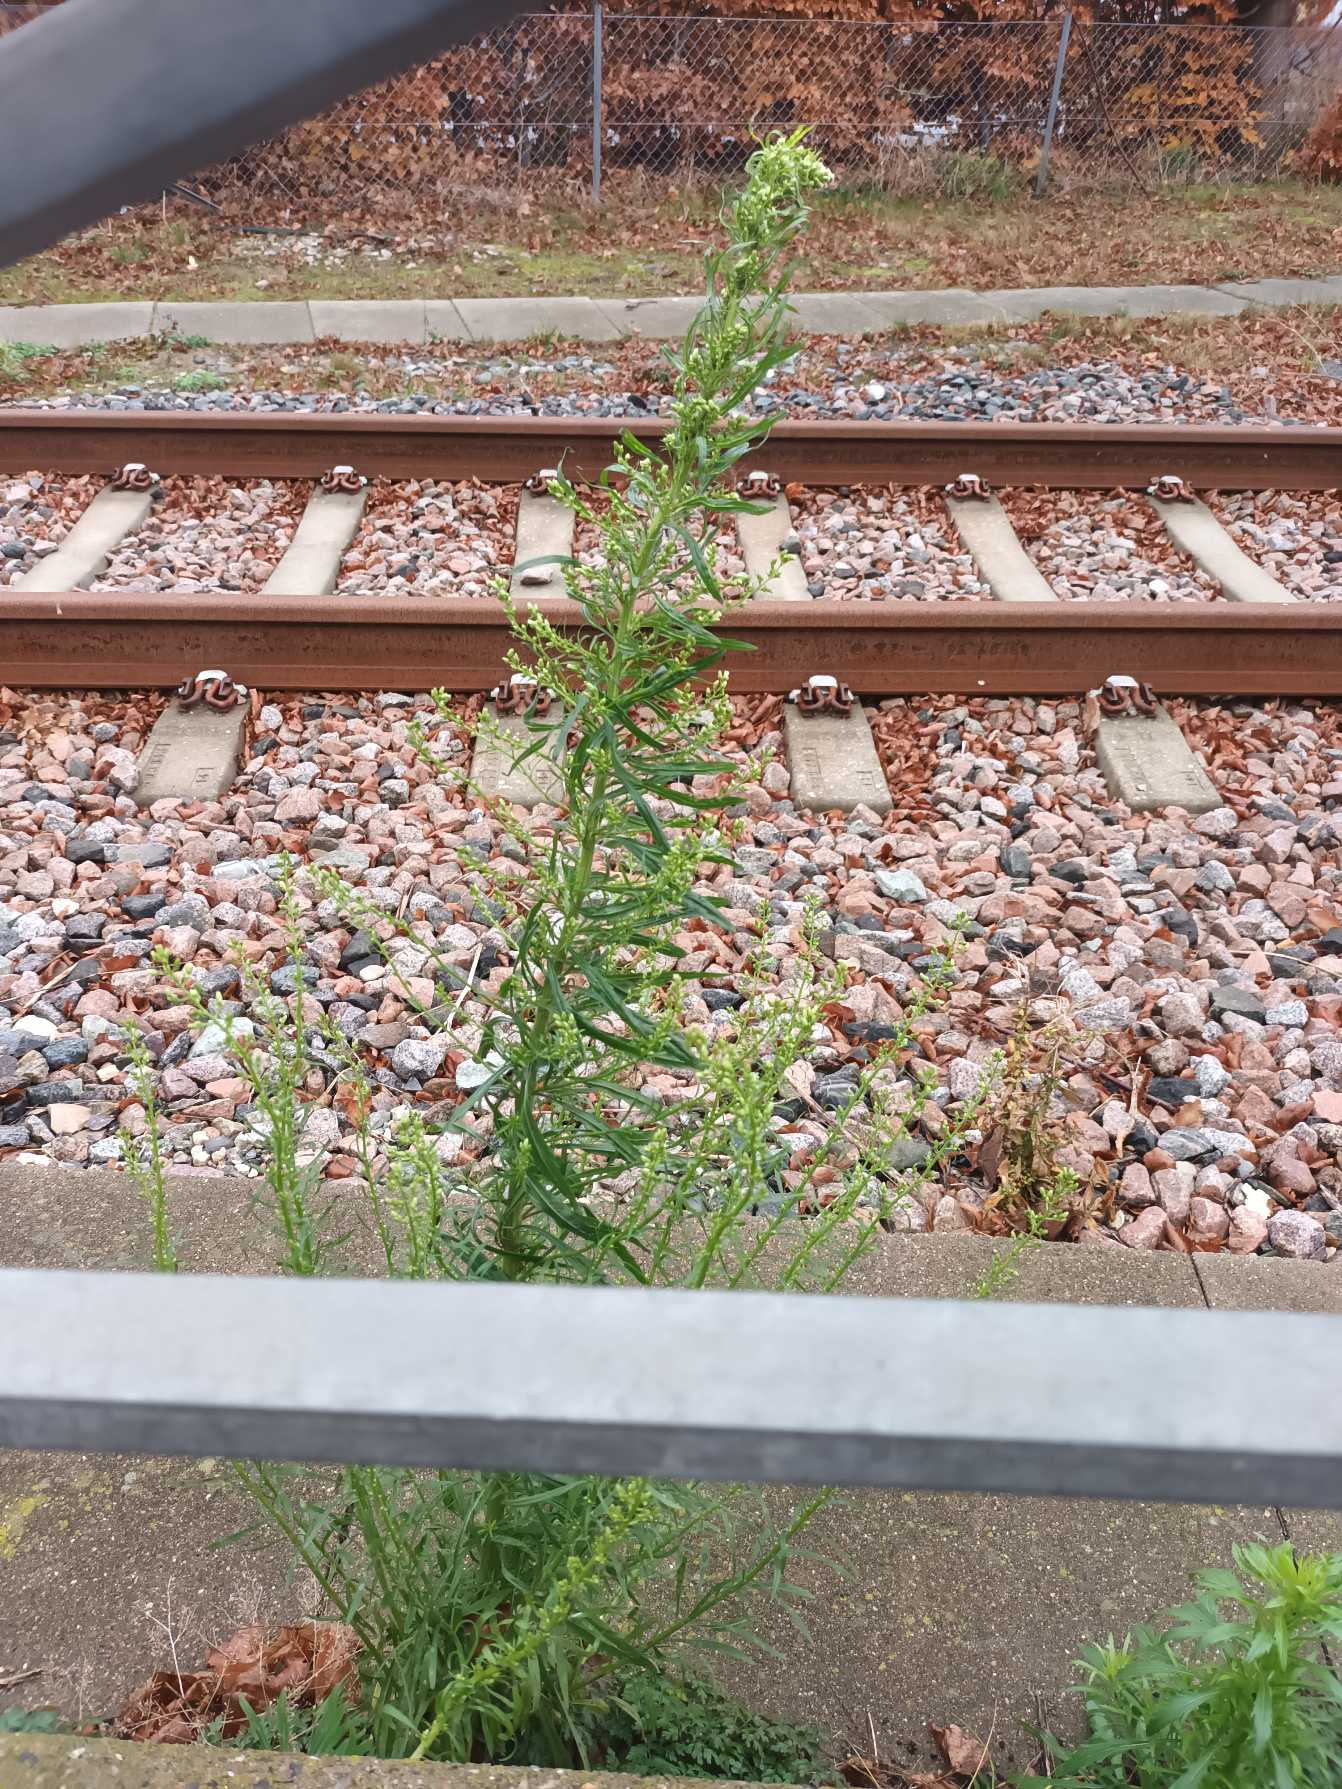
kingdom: Plantae
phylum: Tracheophyta
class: Magnoliopsida
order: Asterales
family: Asteraceae
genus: Erigeron
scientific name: Erigeron canadensis
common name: Kanadisk bakkestjerne
